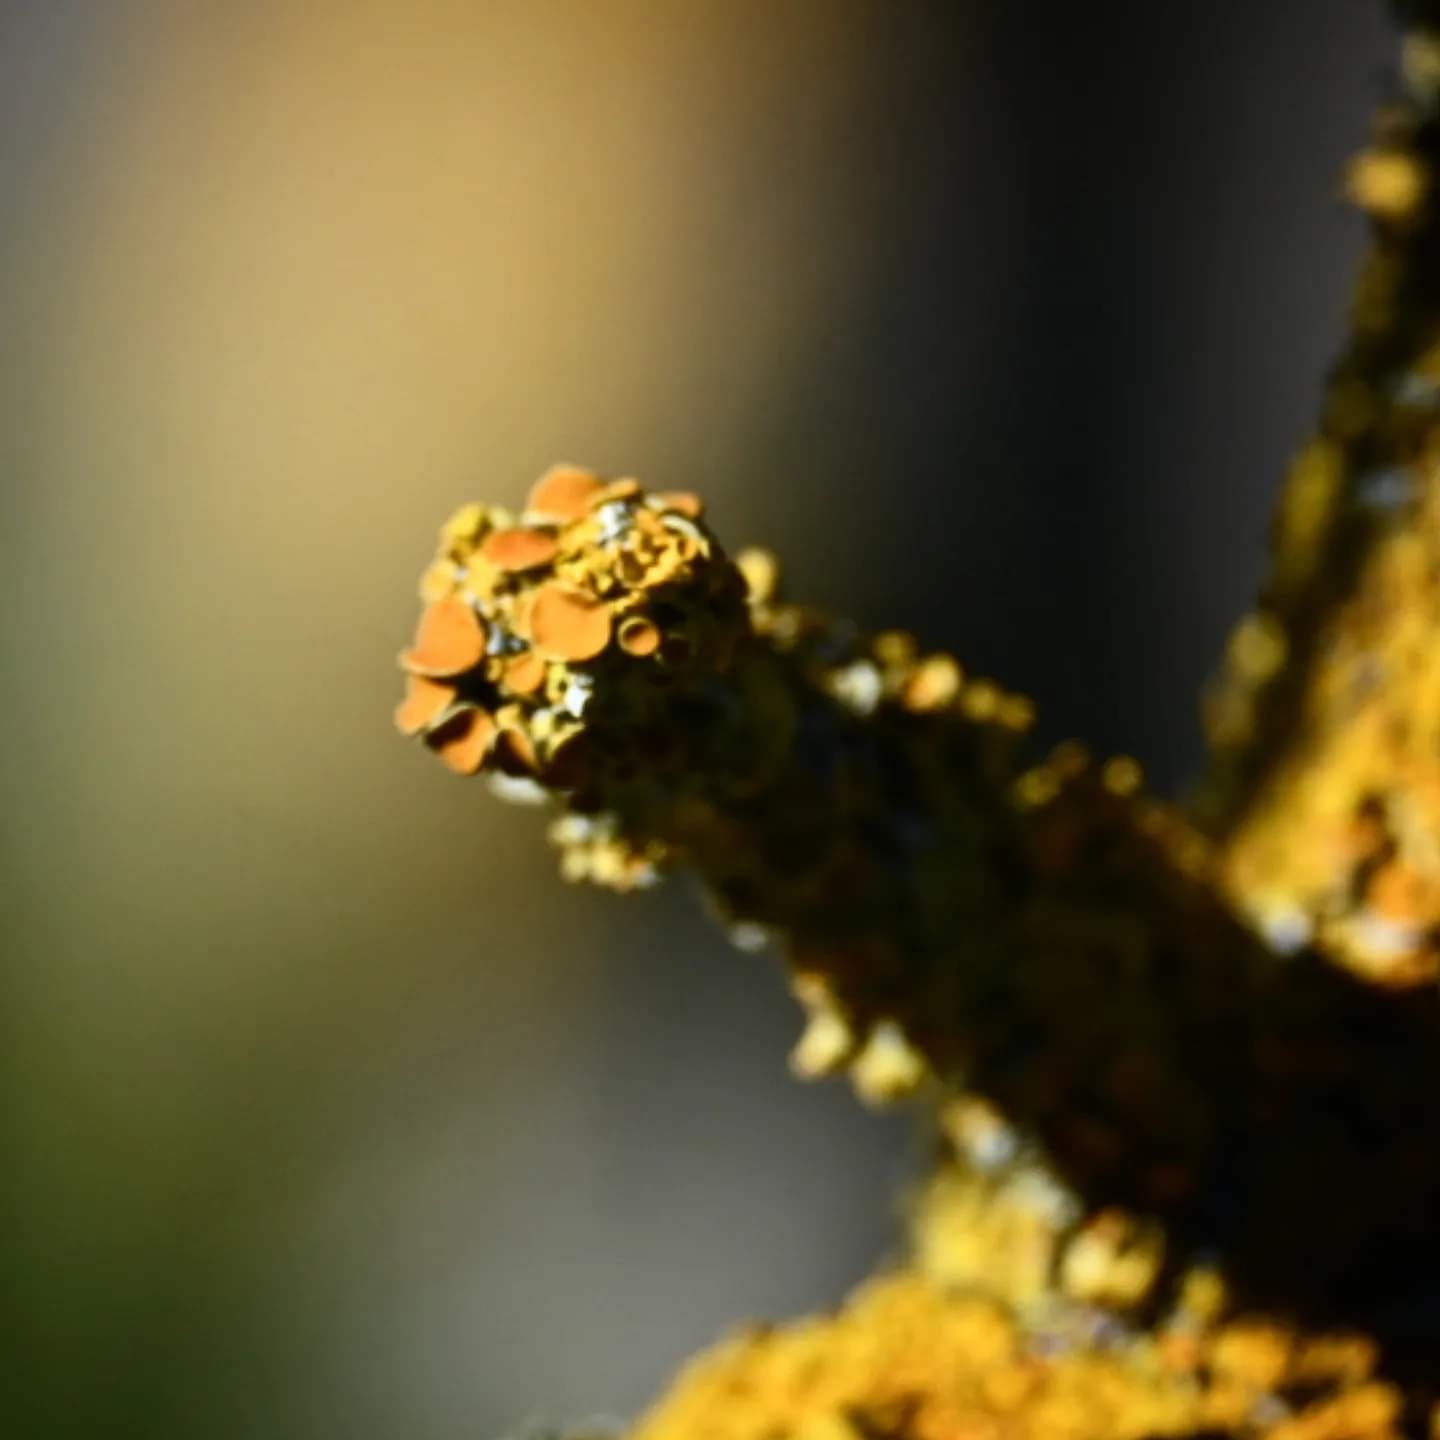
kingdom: Fungi
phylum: Ascomycota
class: Lecanoromycetes
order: Teloschistales
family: Teloschistaceae
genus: Xanthoria
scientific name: Xanthoria parietina
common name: almindelig væggelav
